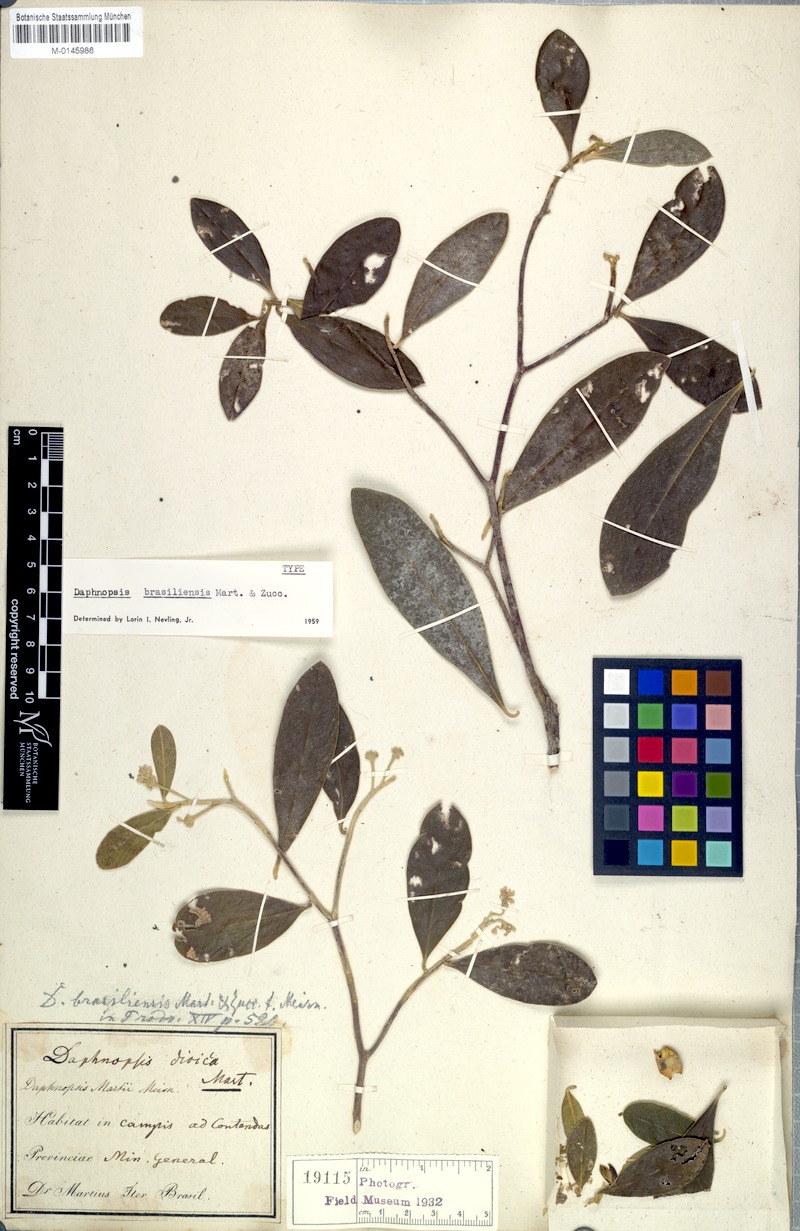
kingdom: Plantae
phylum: Tracheophyta
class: Magnoliopsida
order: Malvales
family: Thymelaeaceae
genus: Daphnopsis
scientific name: Daphnopsis brasiliensis
